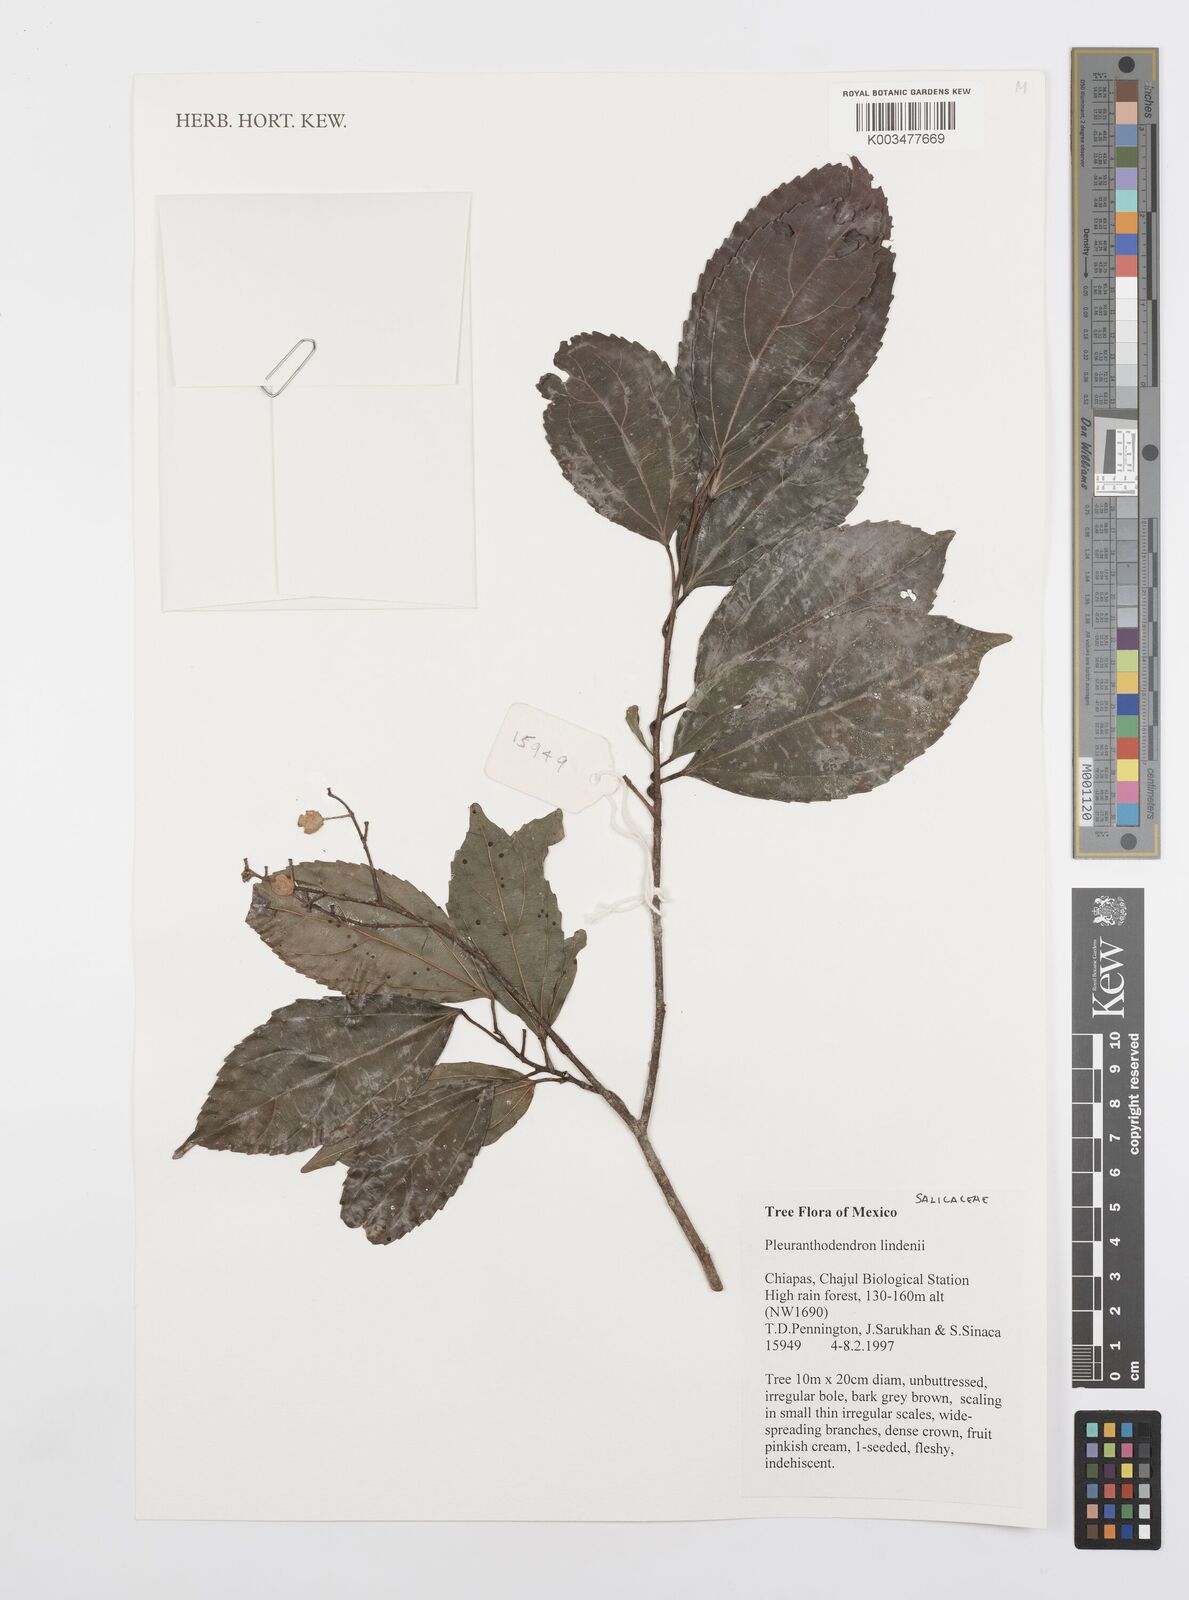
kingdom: Plantae
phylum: Tracheophyta
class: Magnoliopsida
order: Malpighiales
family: Salicaceae
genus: Pleuranthodendron
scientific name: Pleuranthodendron lindenii
